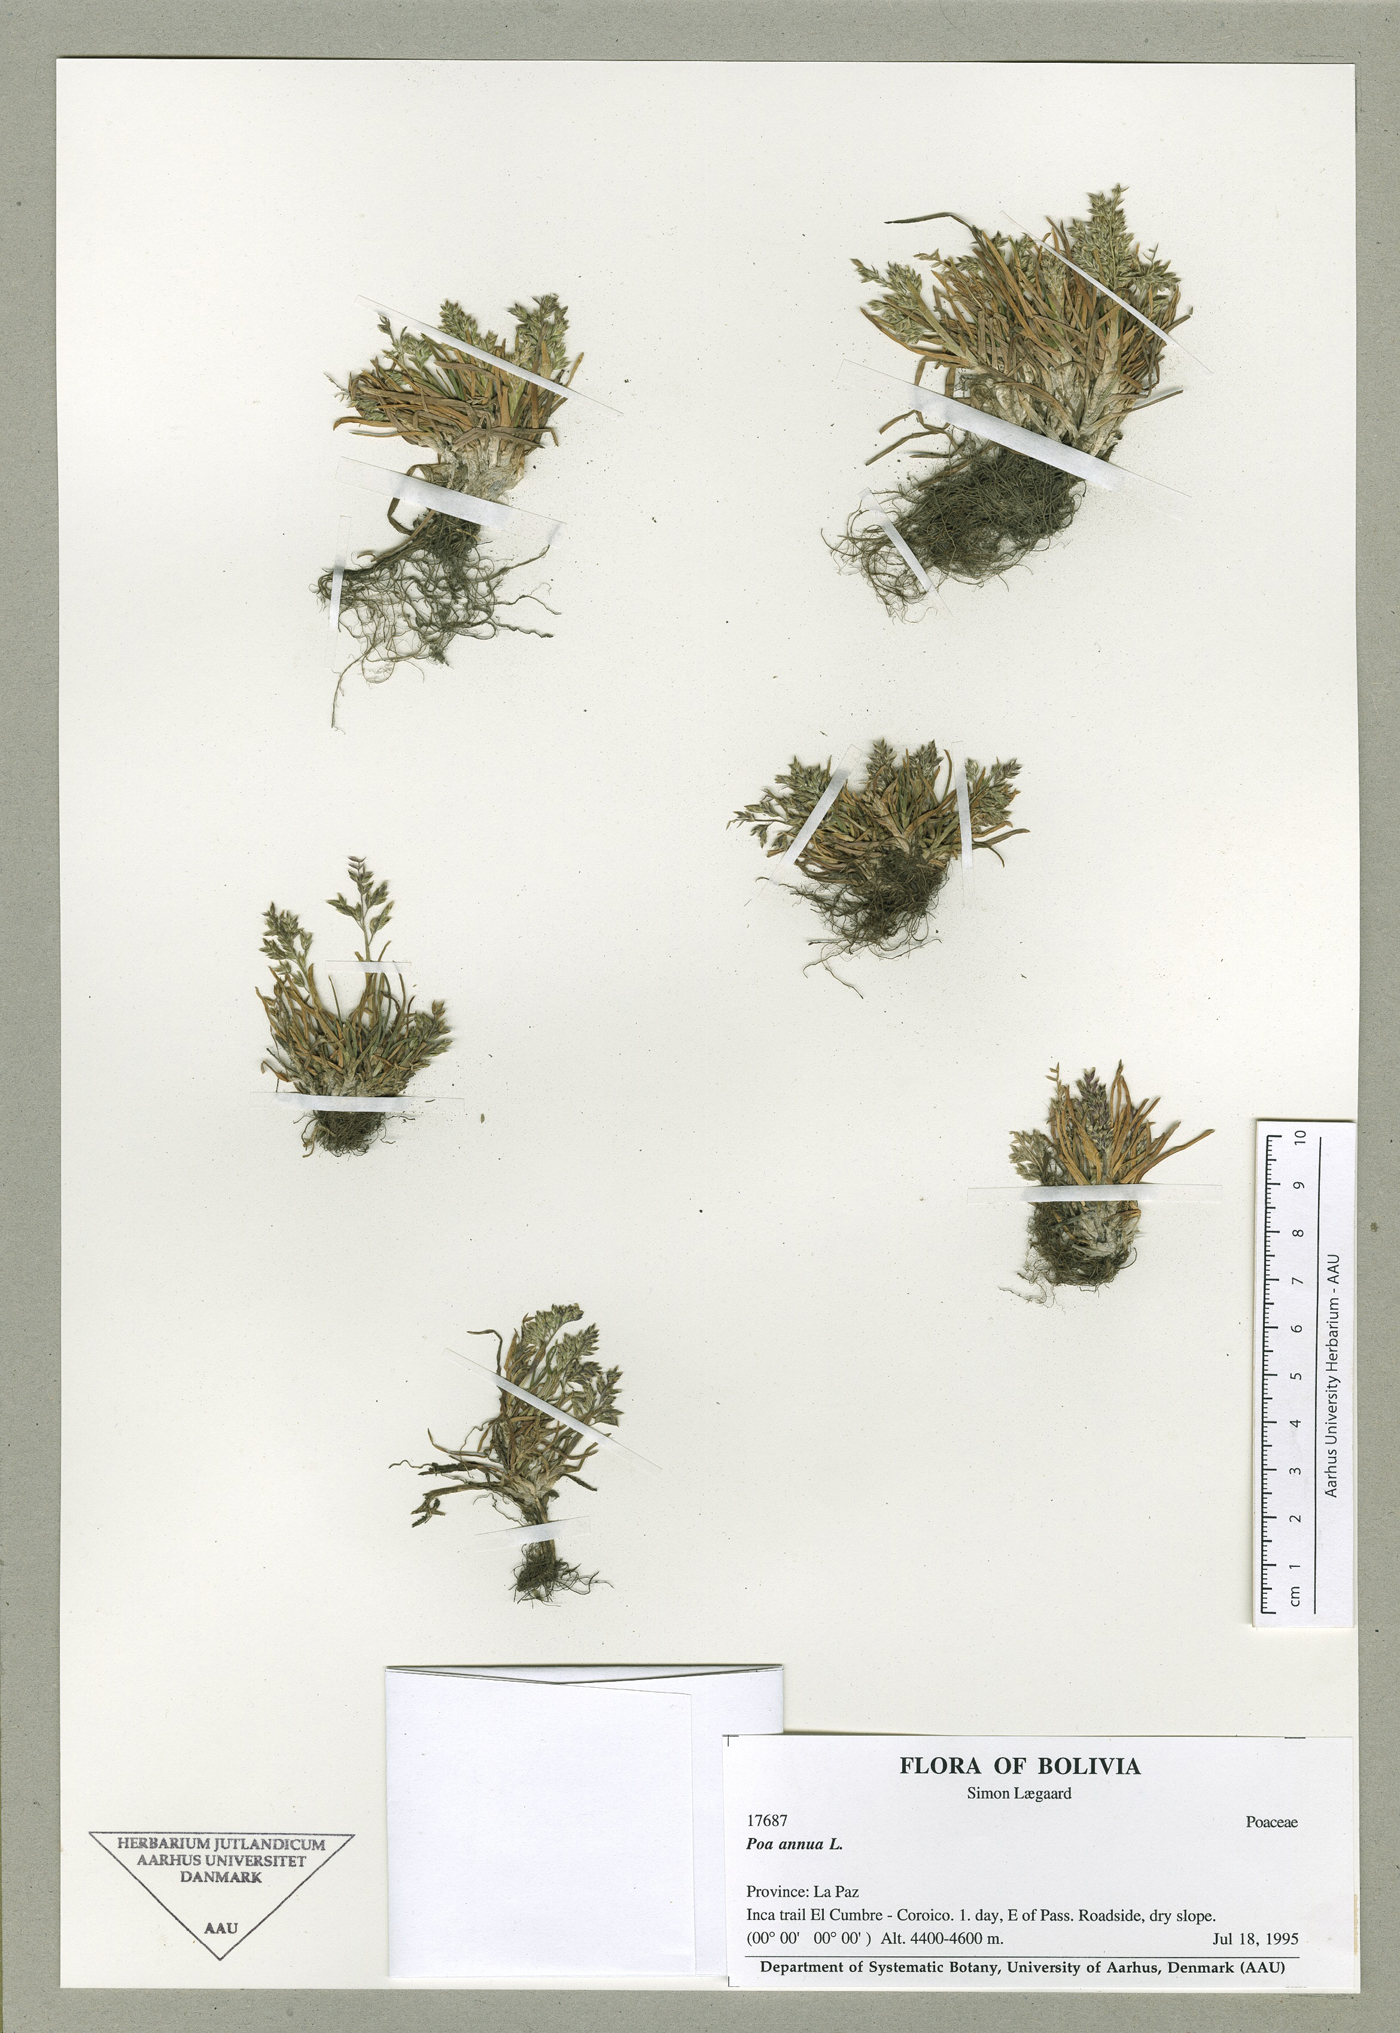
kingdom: Plantae
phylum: Tracheophyta
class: Liliopsida
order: Poales
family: Poaceae
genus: Poa
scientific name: Poa annua
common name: Annual bluegrass
